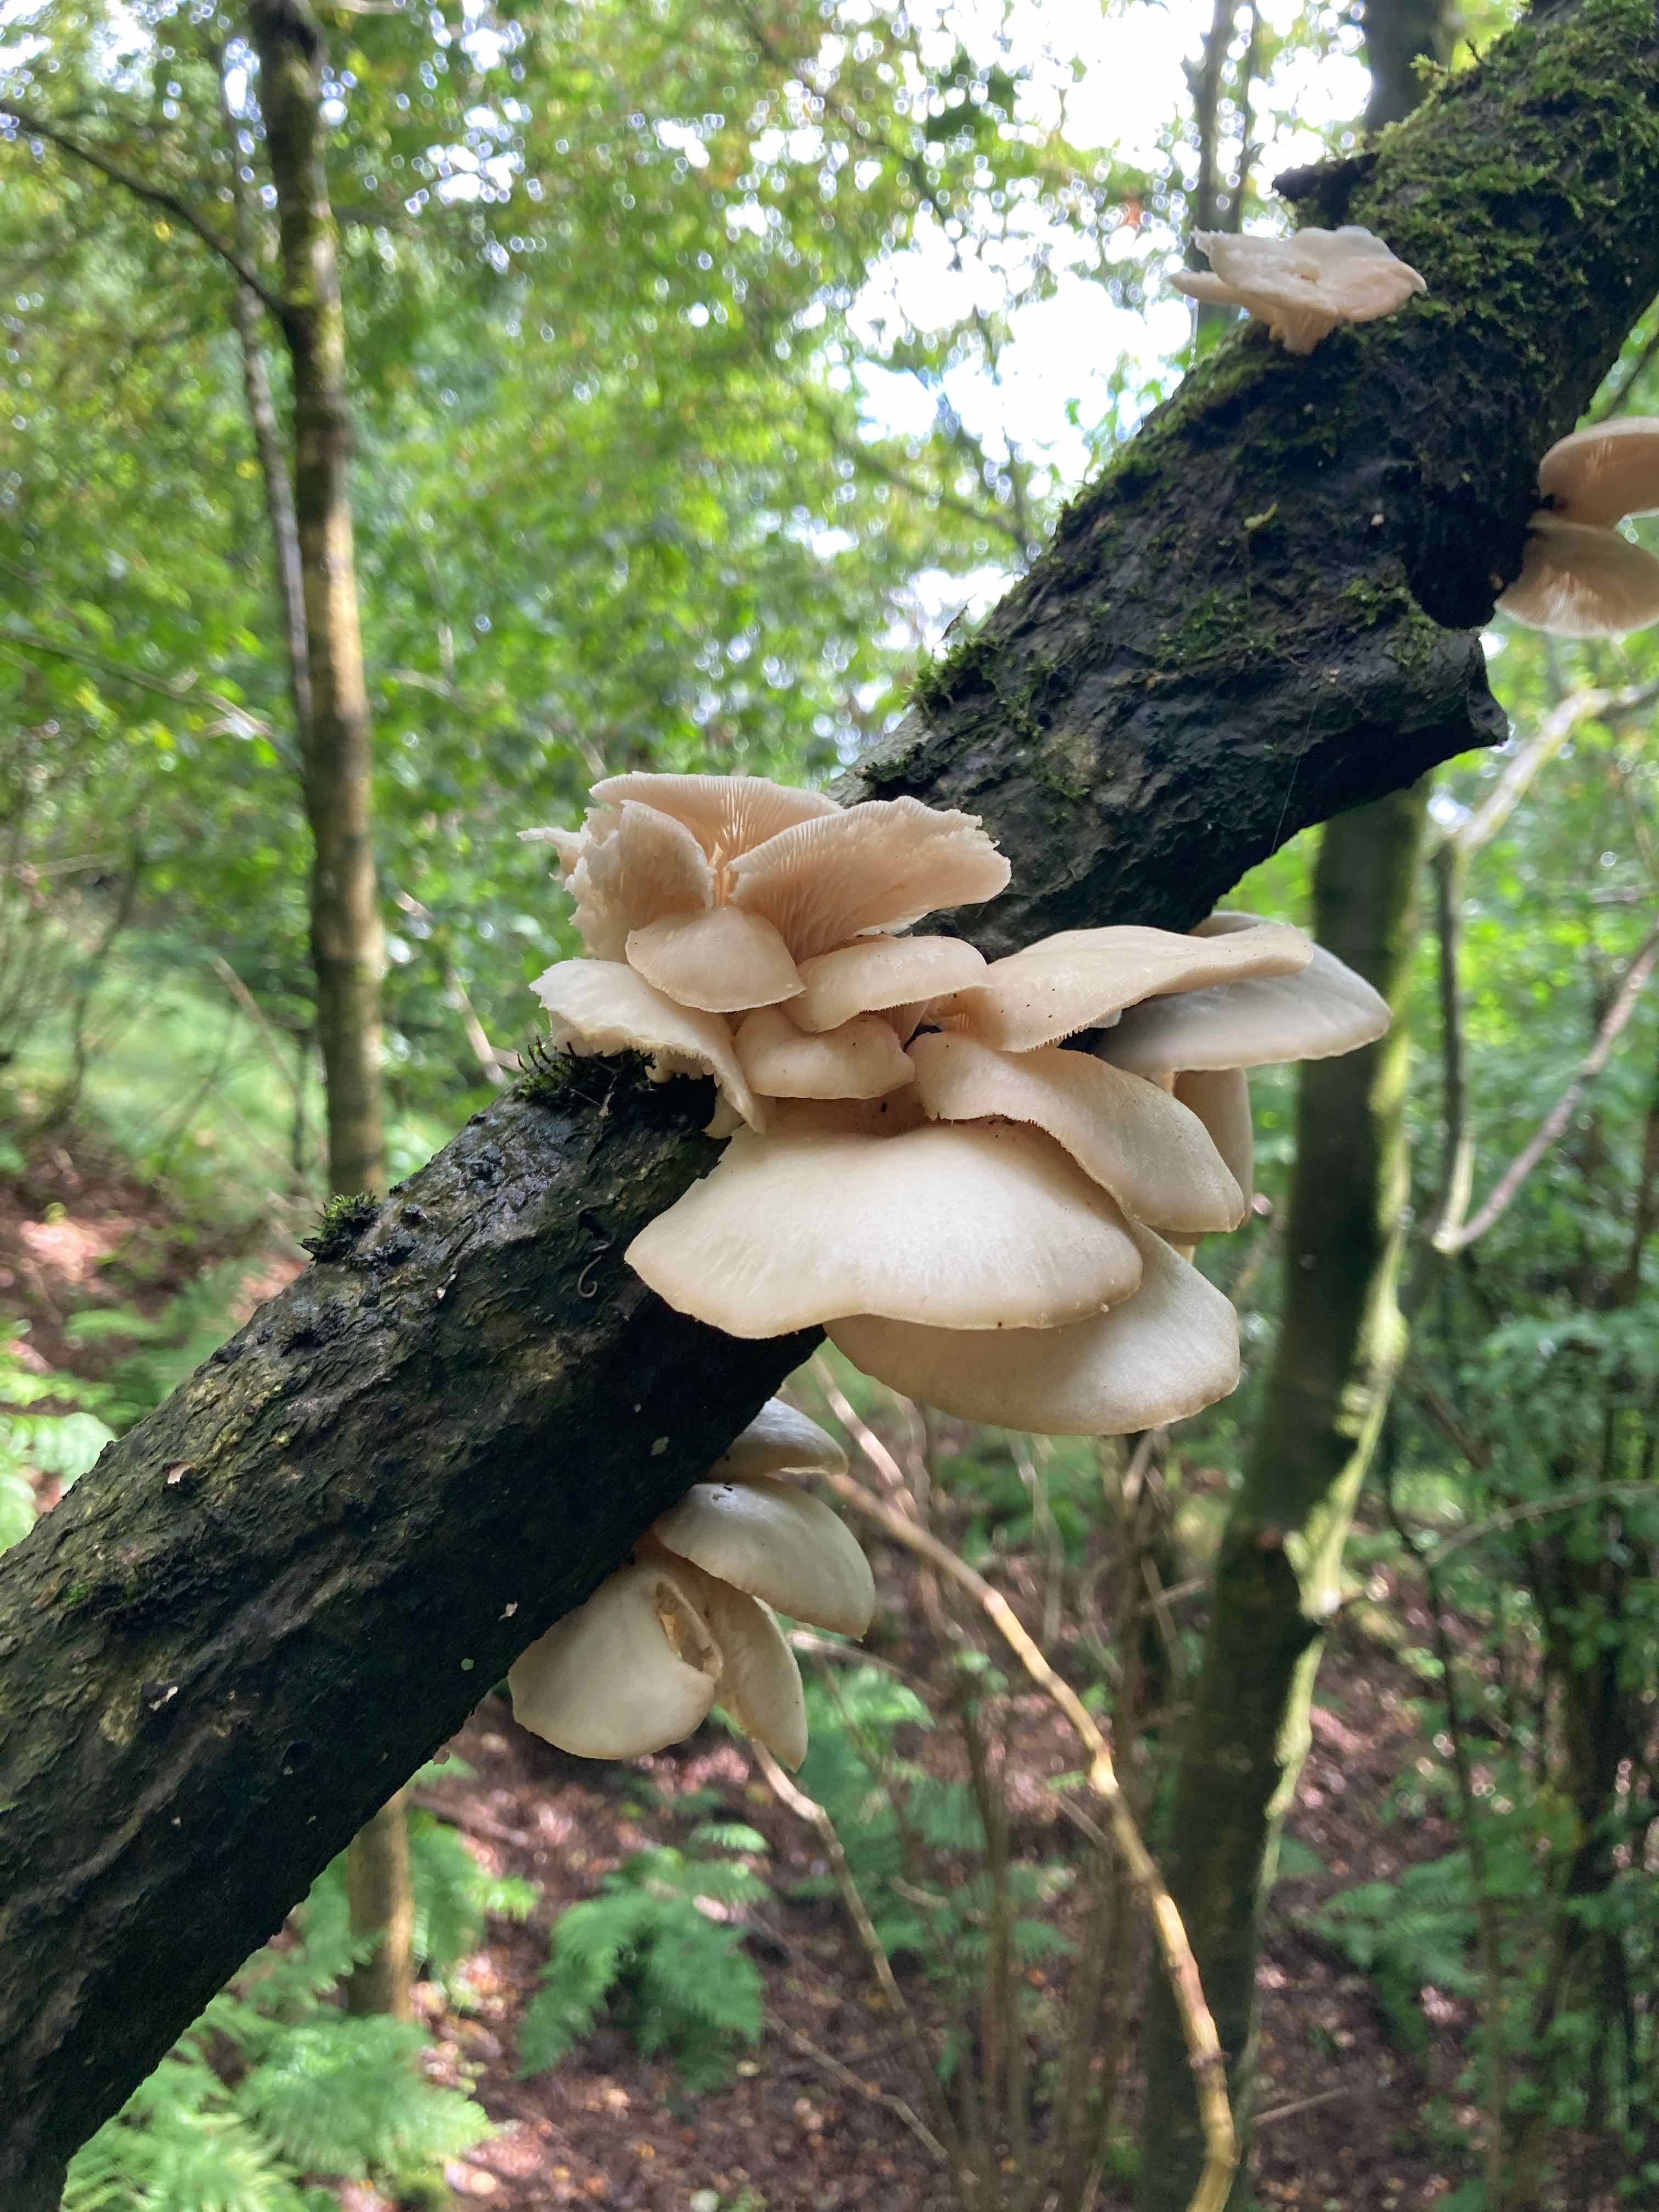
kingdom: Fungi
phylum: Basidiomycota
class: Agaricomycetes
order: Agaricales
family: Pleurotaceae
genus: Pleurotus
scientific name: Pleurotus pulmonarius
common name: sommer-østershat
